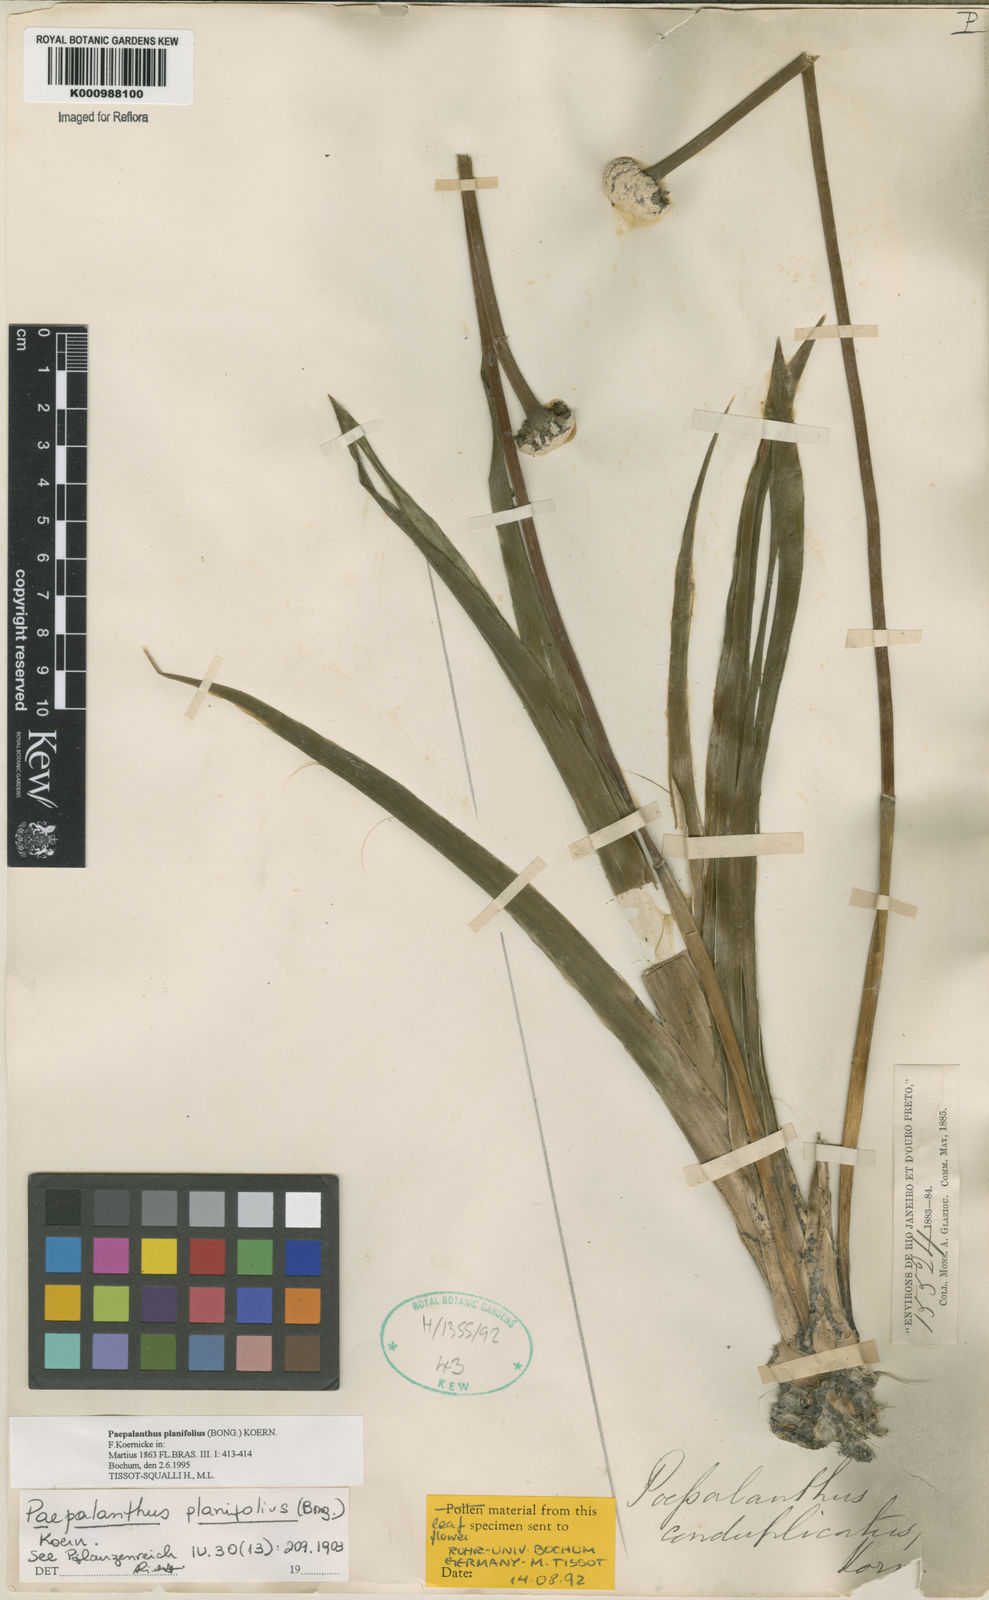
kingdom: Plantae
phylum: Tracheophyta
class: Liliopsida
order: Poales
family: Eriocaulaceae
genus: Paepalanthus
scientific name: Paepalanthus
